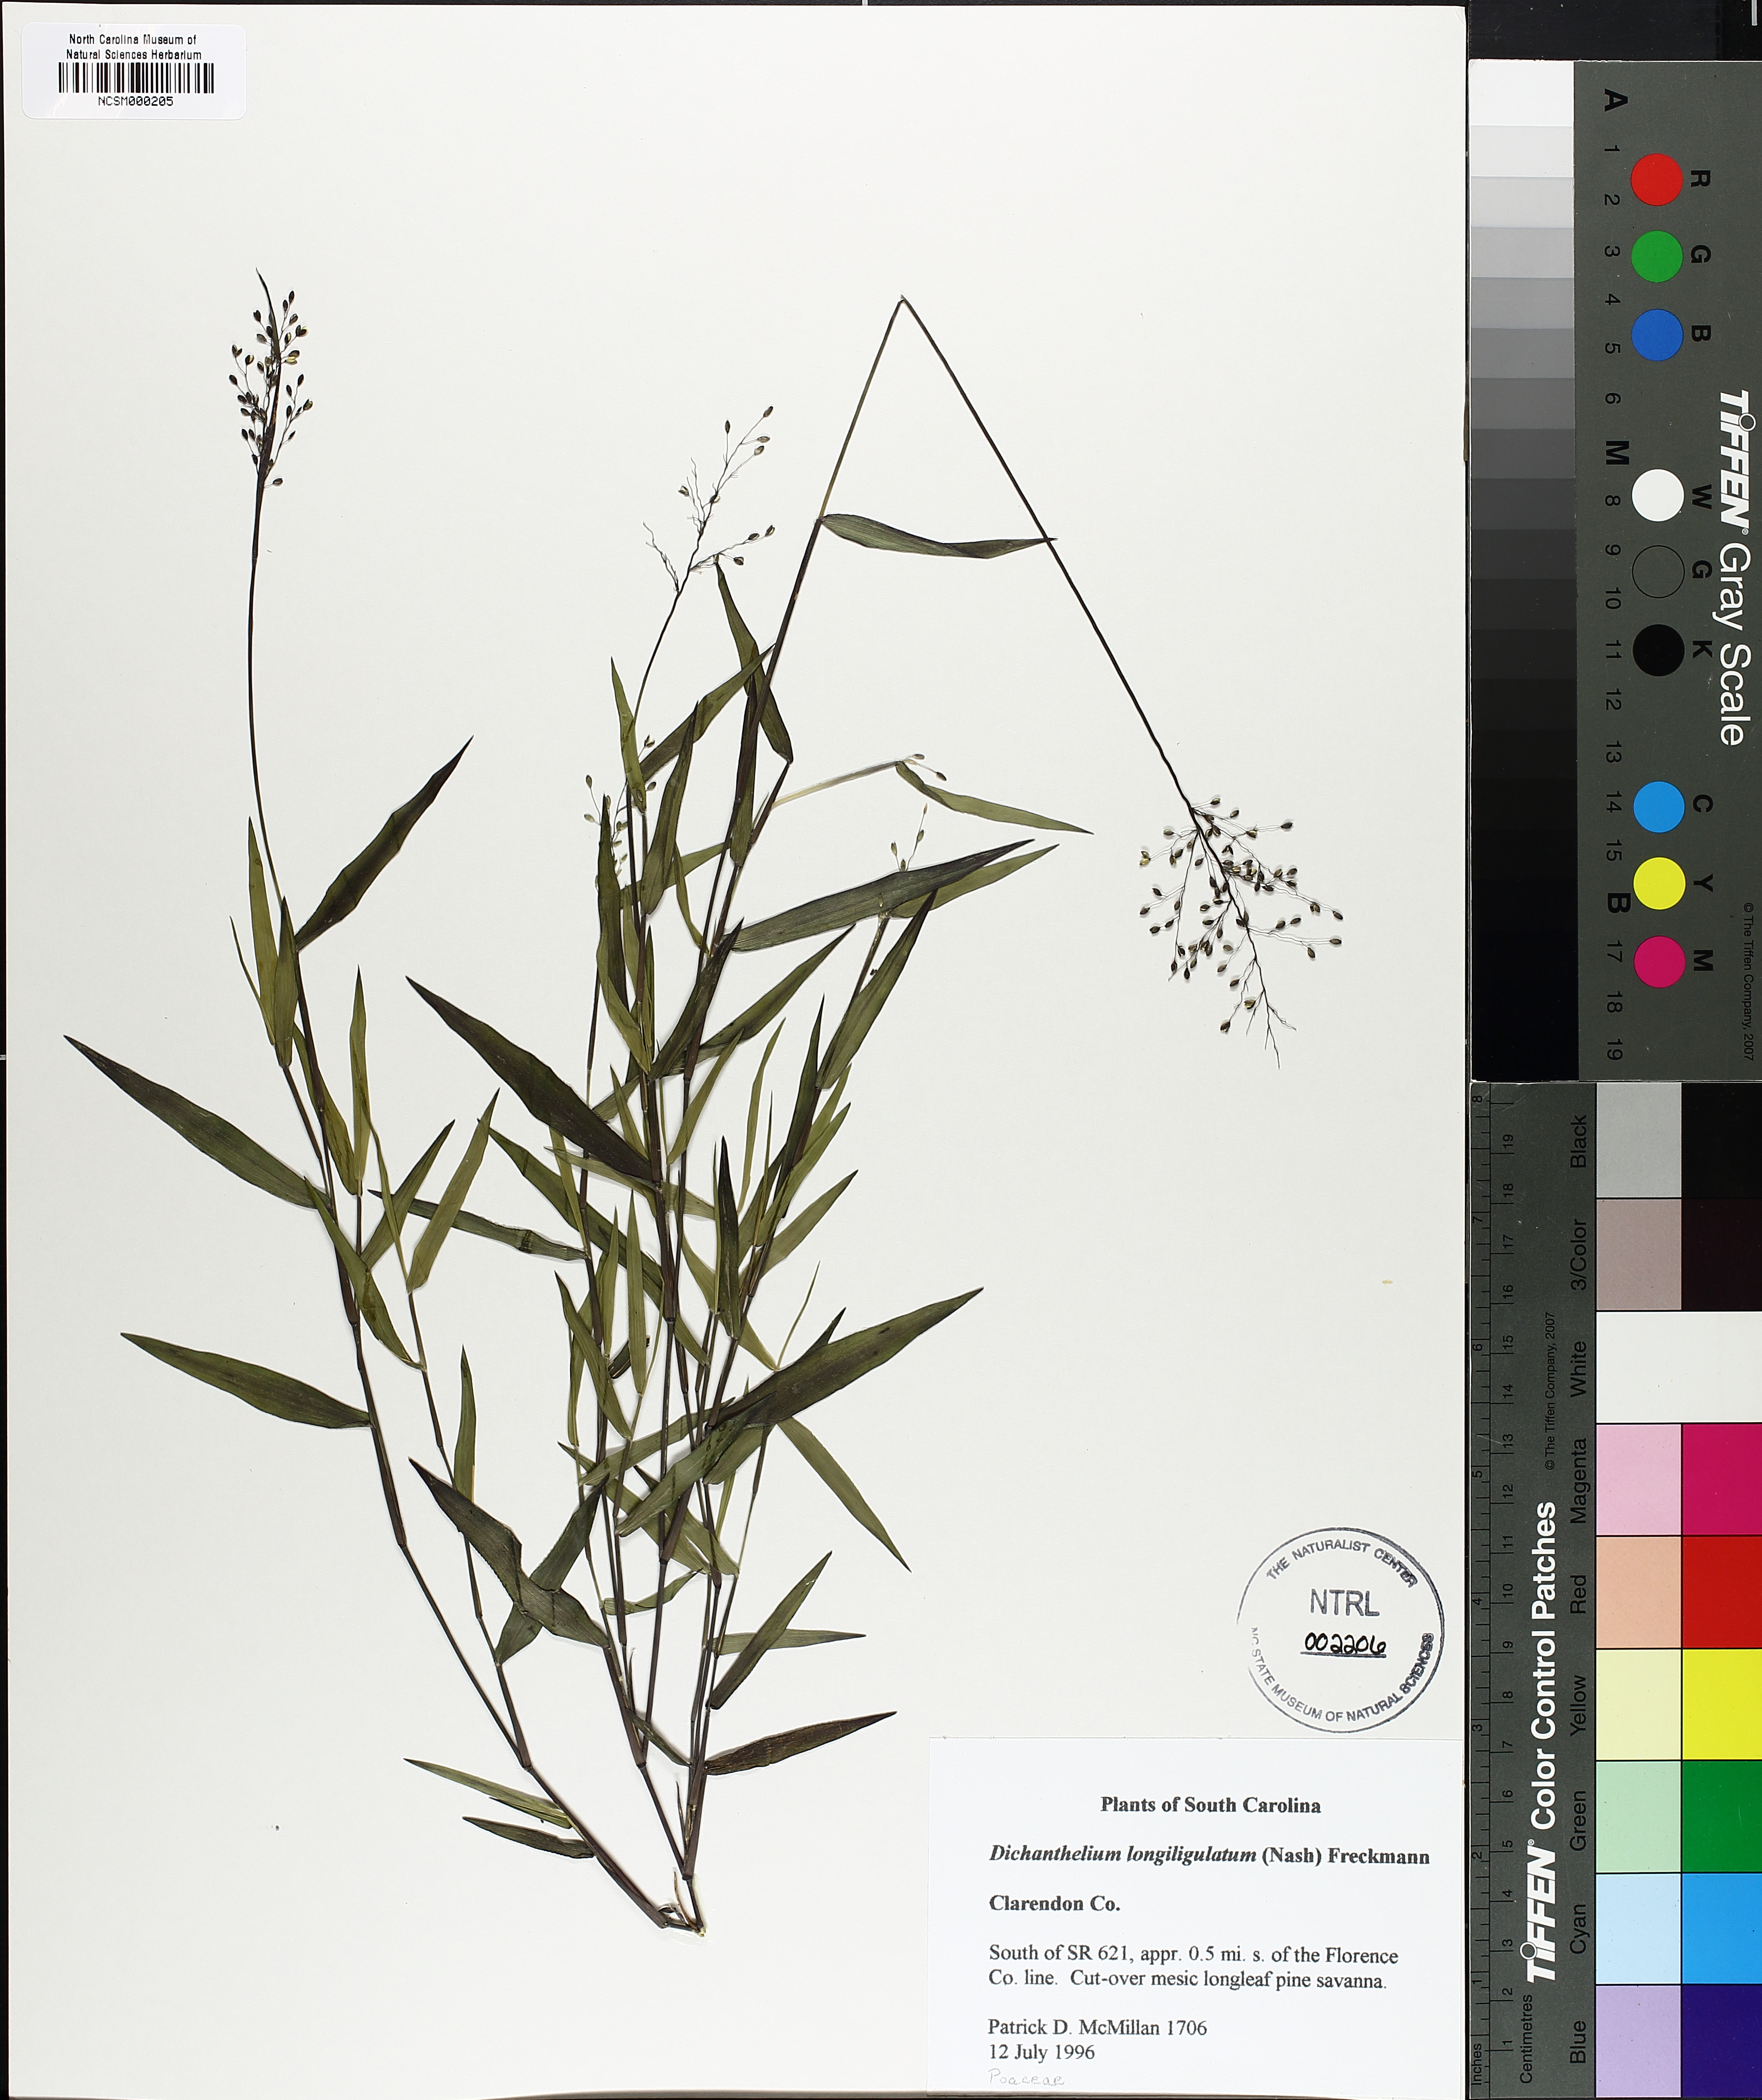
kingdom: Plantae
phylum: Tracheophyta
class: Liliopsida
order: Poales
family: Poaceae
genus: Dichanthelium
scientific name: Dichanthelium longiligulatum
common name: Long-ligule panicgrass
